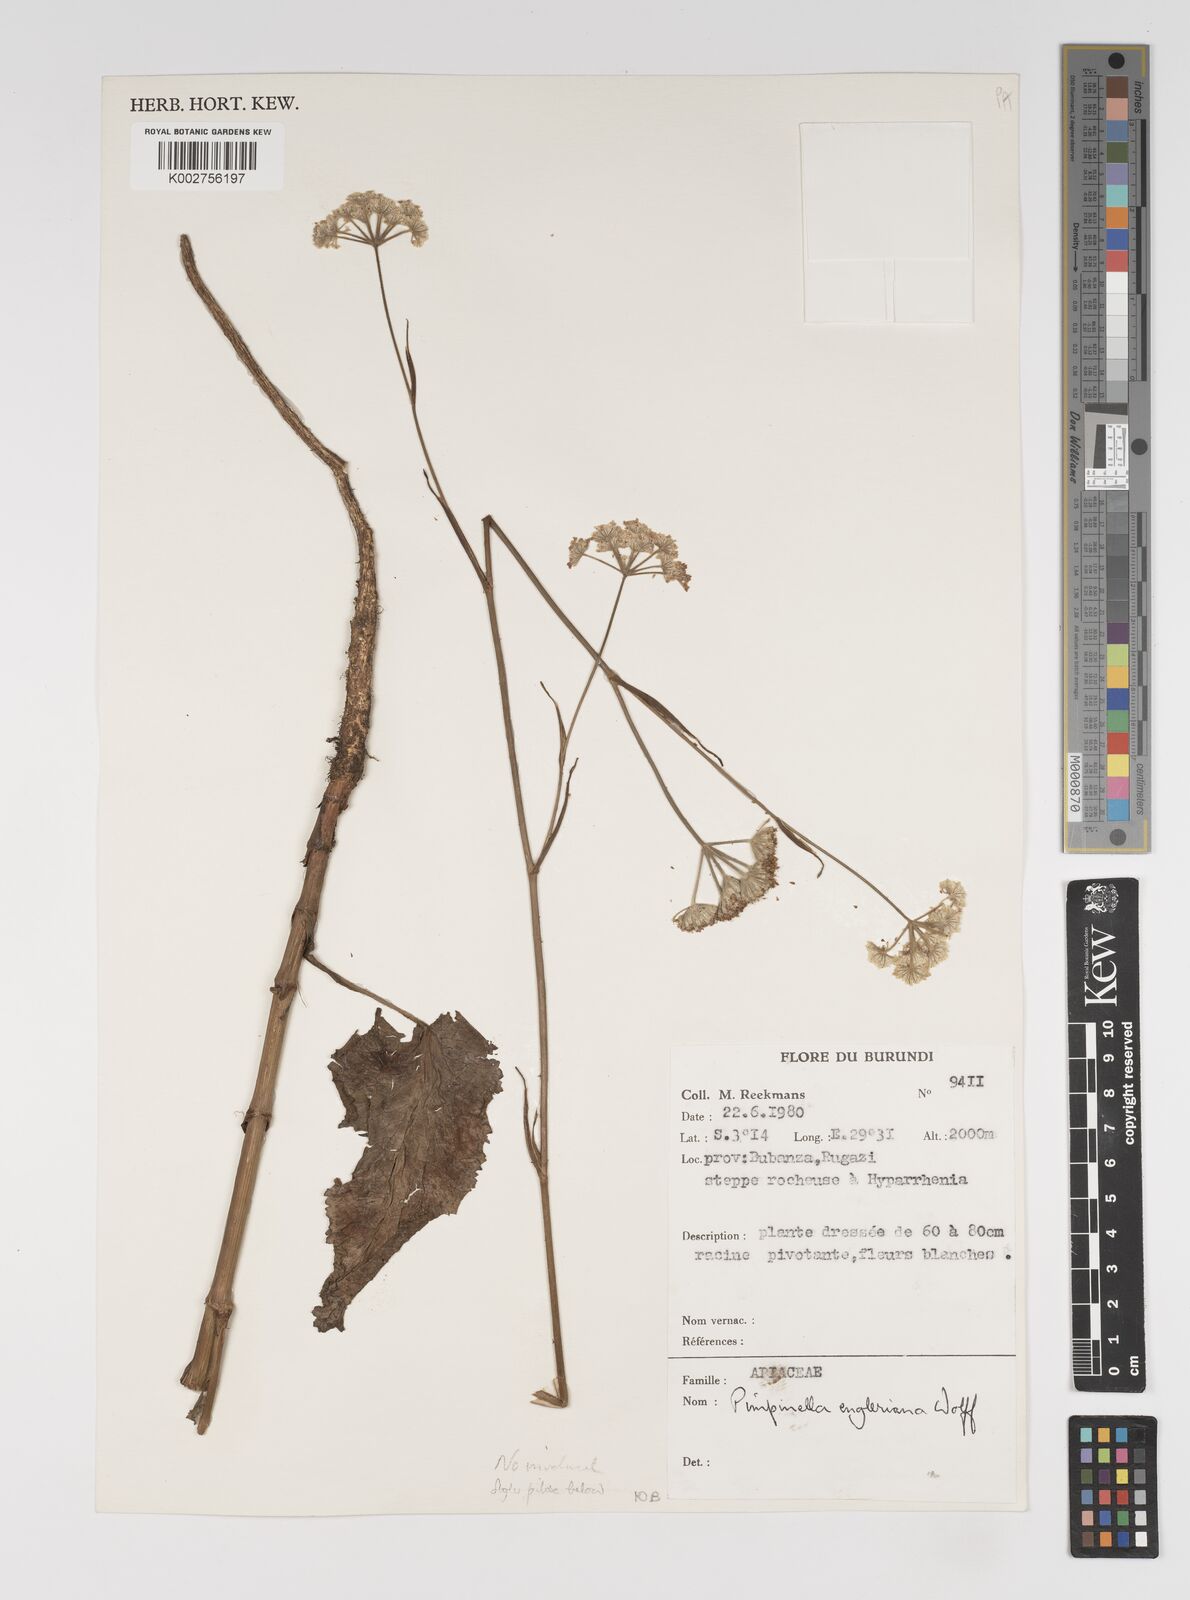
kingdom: Plantae
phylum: Tracheophyta
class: Magnoliopsida
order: Apiales
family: Apiaceae
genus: Pimpinella
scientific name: Pimpinella ledermannii
